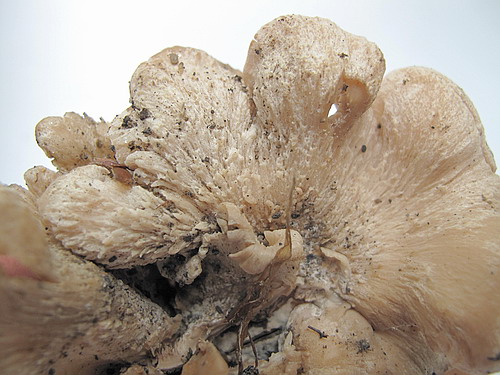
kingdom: Fungi
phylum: Basidiomycota
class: Agaricomycetes
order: Russulales
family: Auriscalpiaceae
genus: Lentinellus
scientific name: Lentinellus ursinus
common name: børstehåret savbladhat
